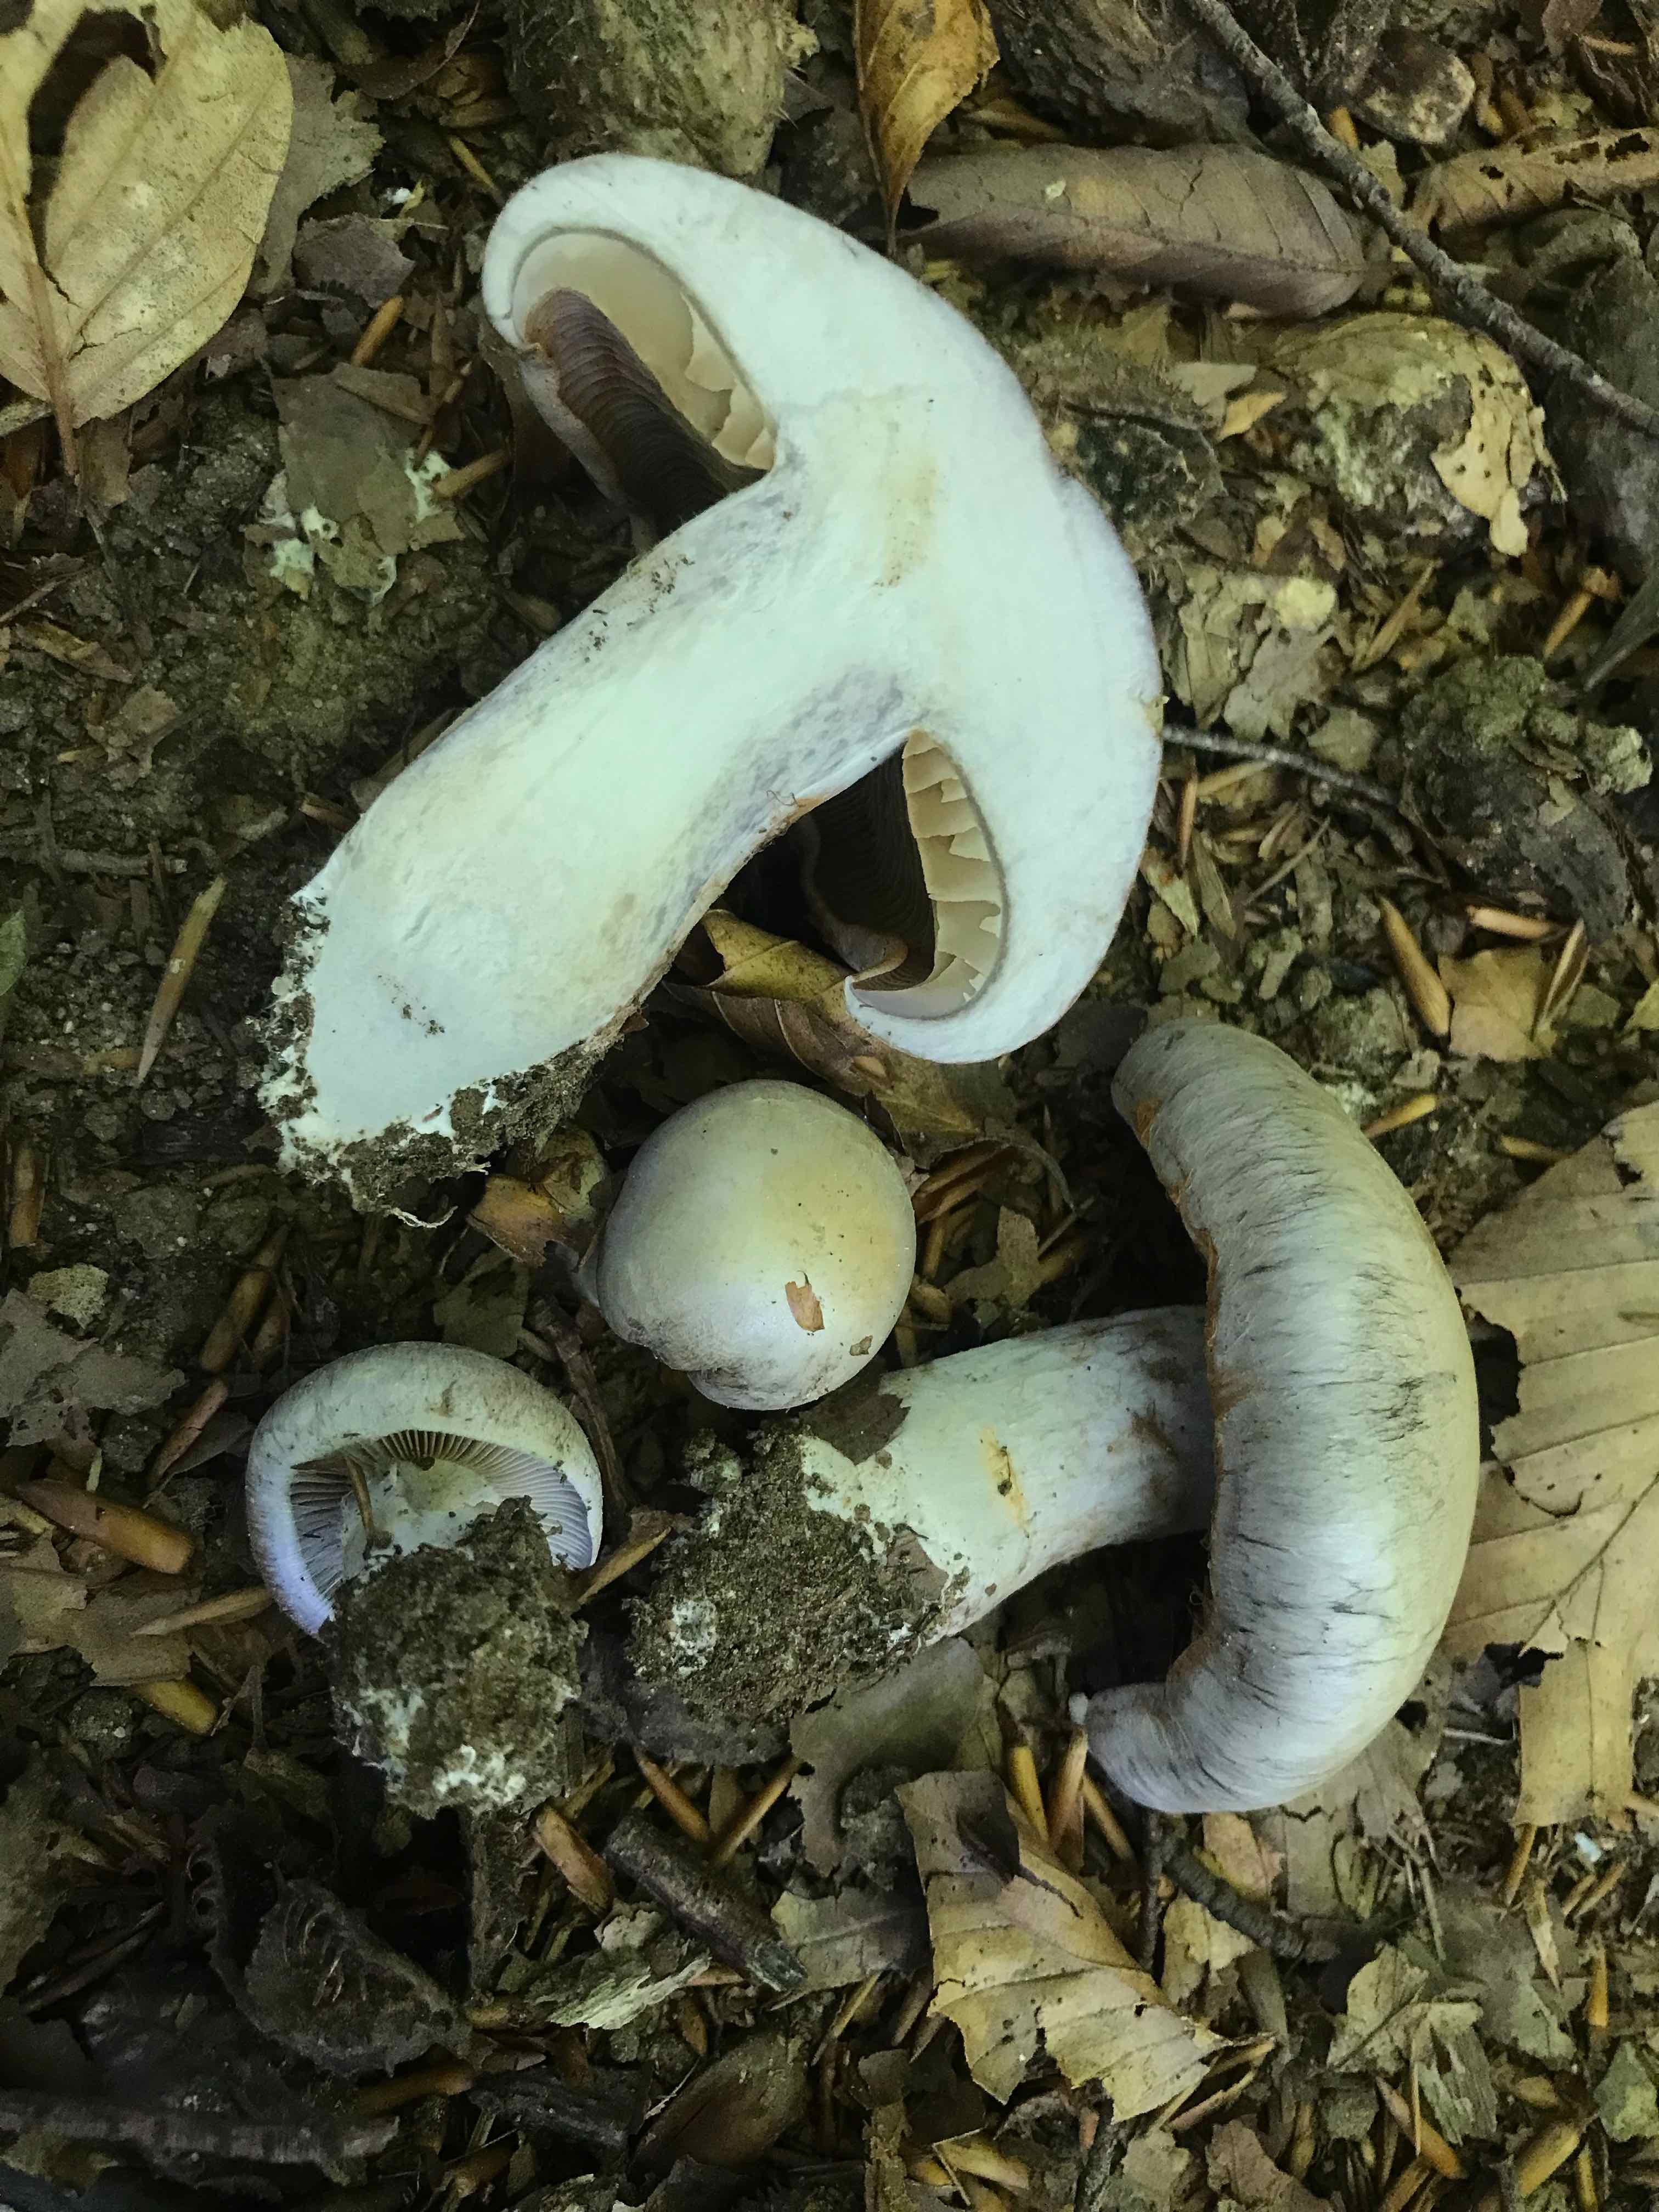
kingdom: Fungi
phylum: Basidiomycota
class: Agaricomycetes
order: Agaricales
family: Cortinariaceae
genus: Cortinarius
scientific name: Cortinarius largus
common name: violetrandet slørhat
